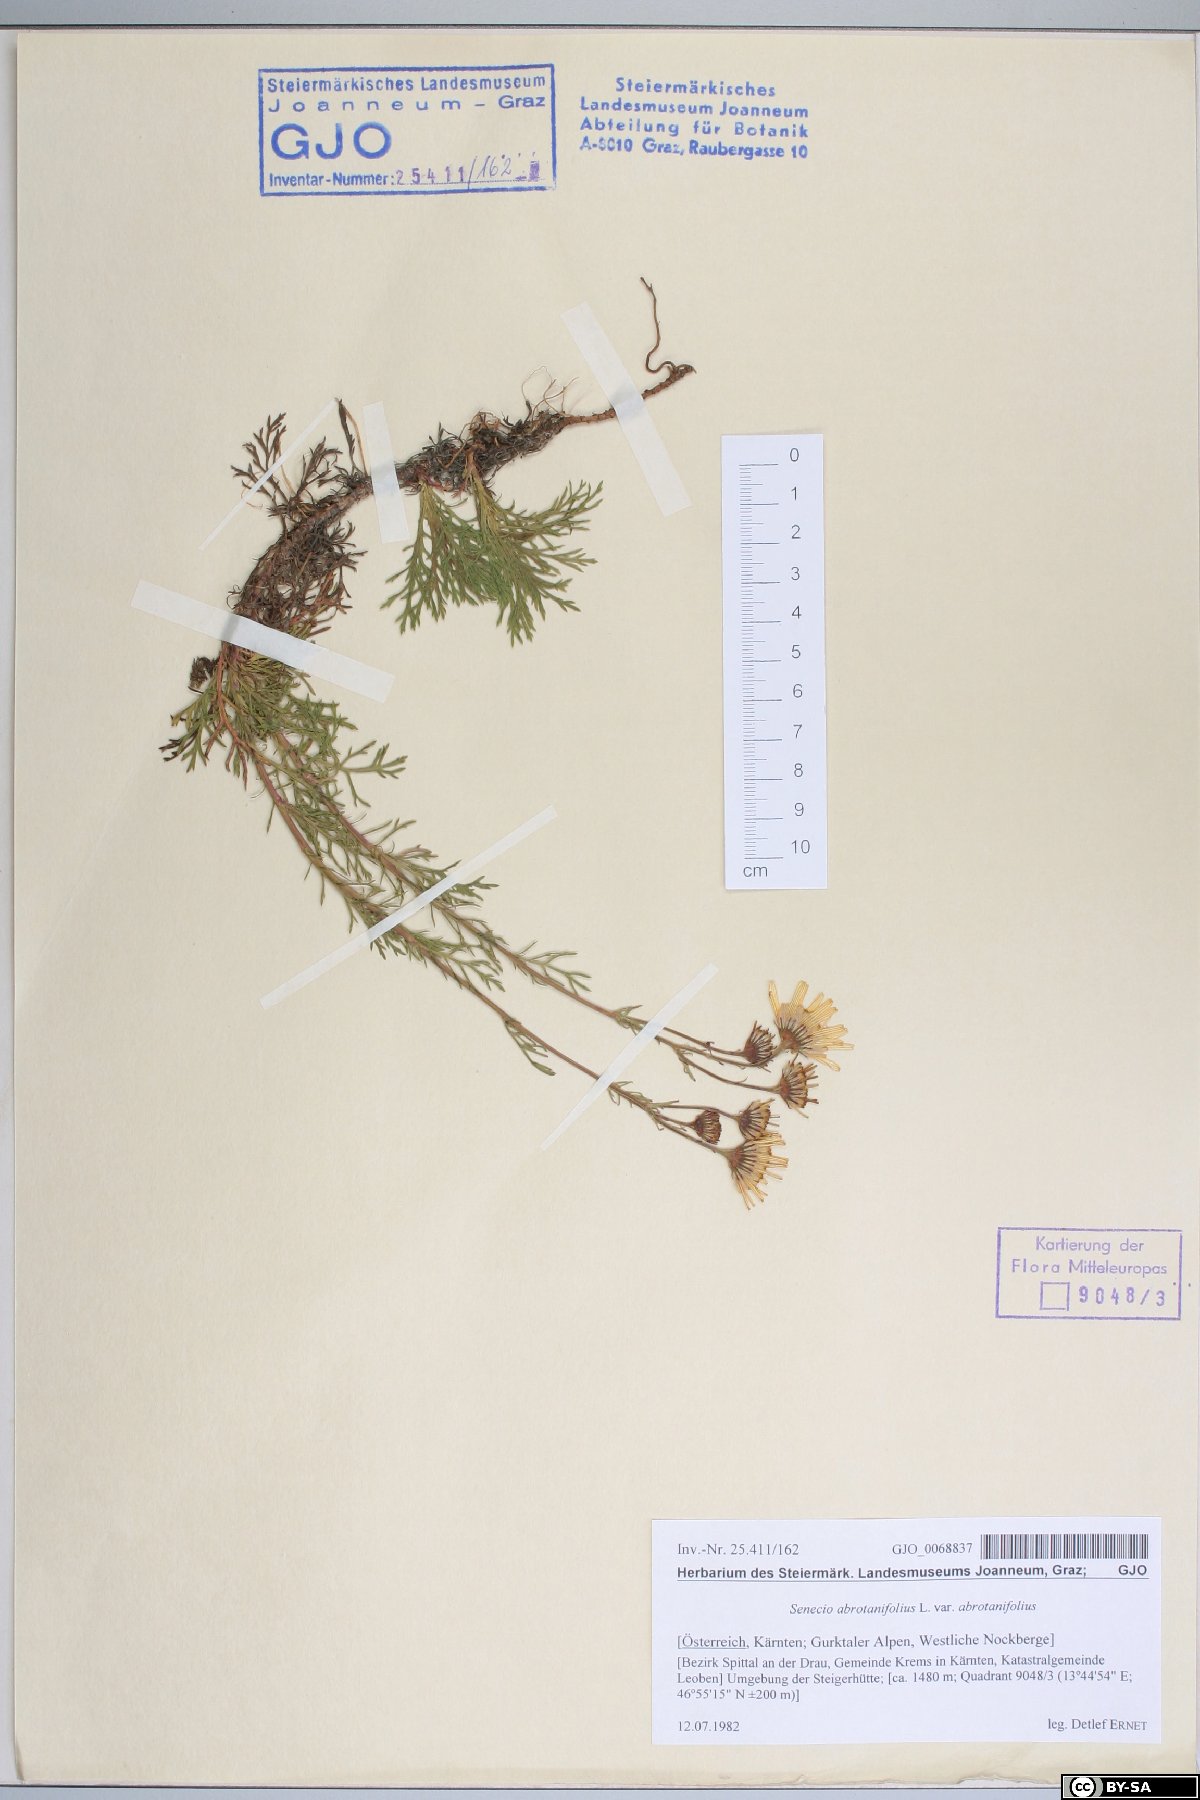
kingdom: Plantae
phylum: Tracheophyta
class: Magnoliopsida
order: Asterales
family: Asteraceae
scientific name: Asteraceae
